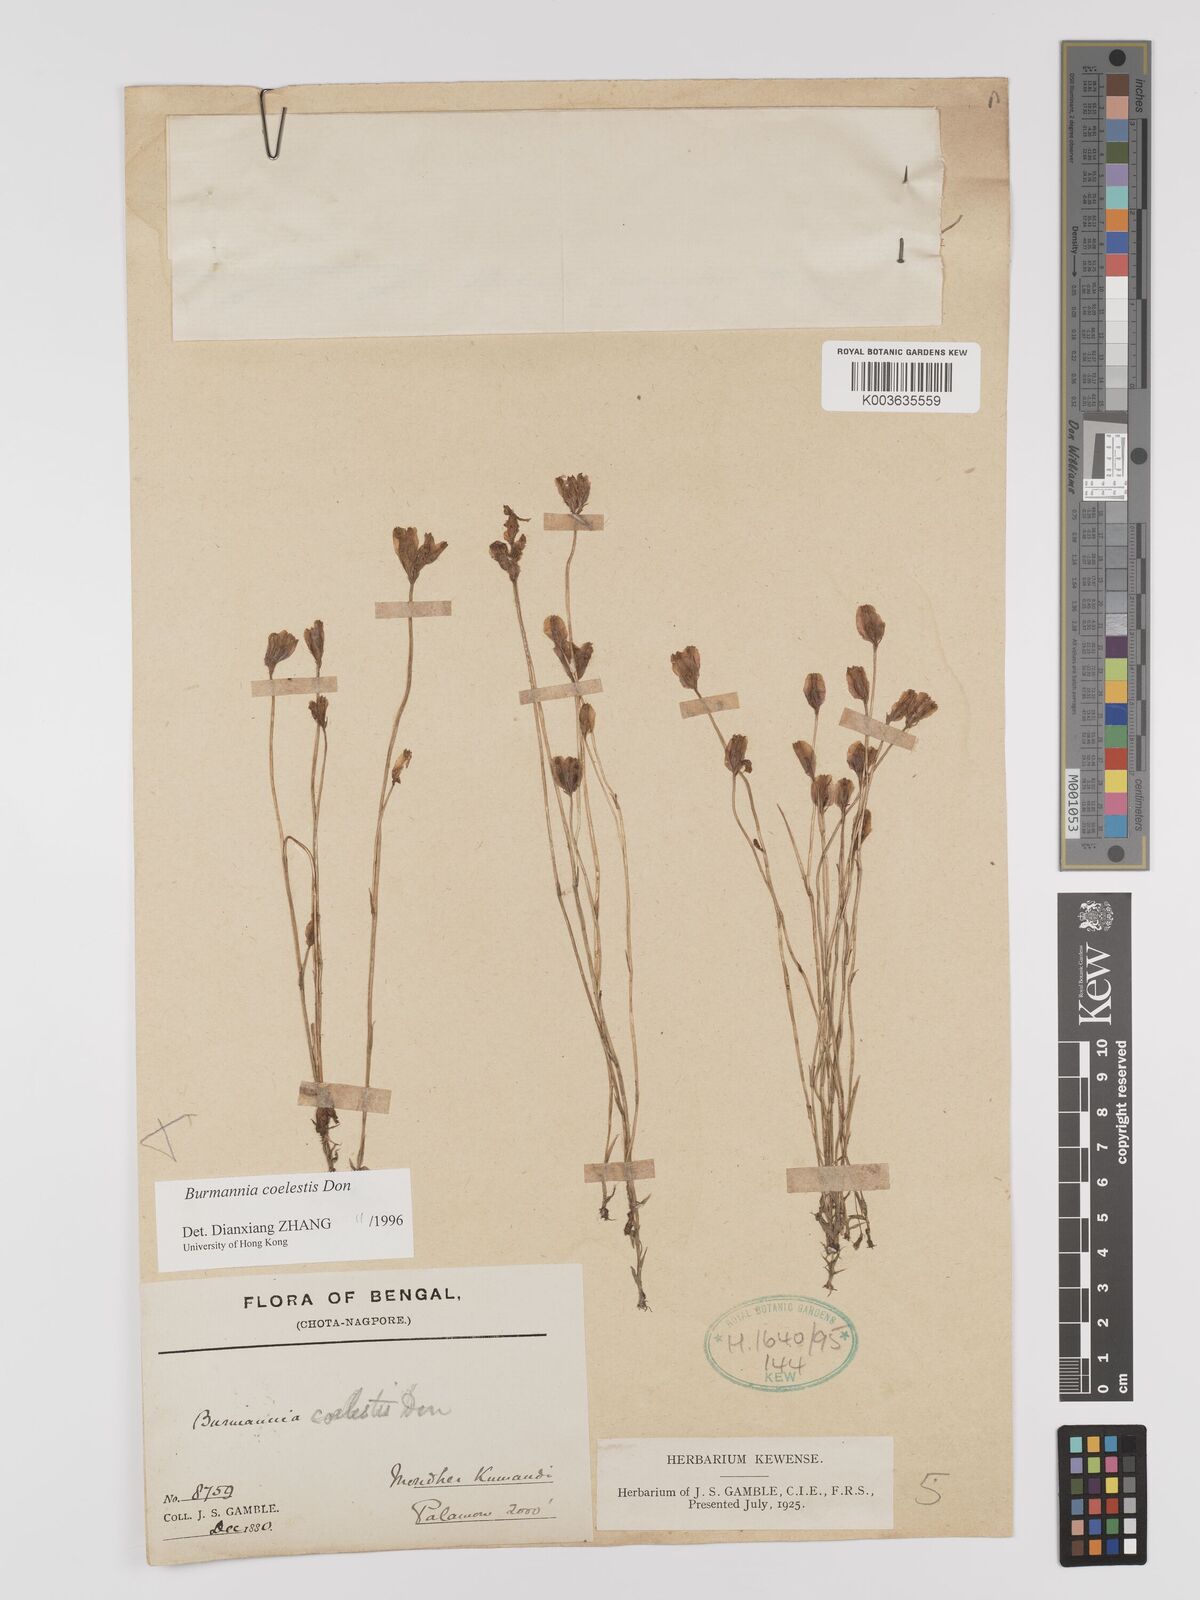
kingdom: Plantae
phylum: Tracheophyta
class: Liliopsida
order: Dioscoreales
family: Burmanniaceae
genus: Burmannia
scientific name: Burmannia coelestis
